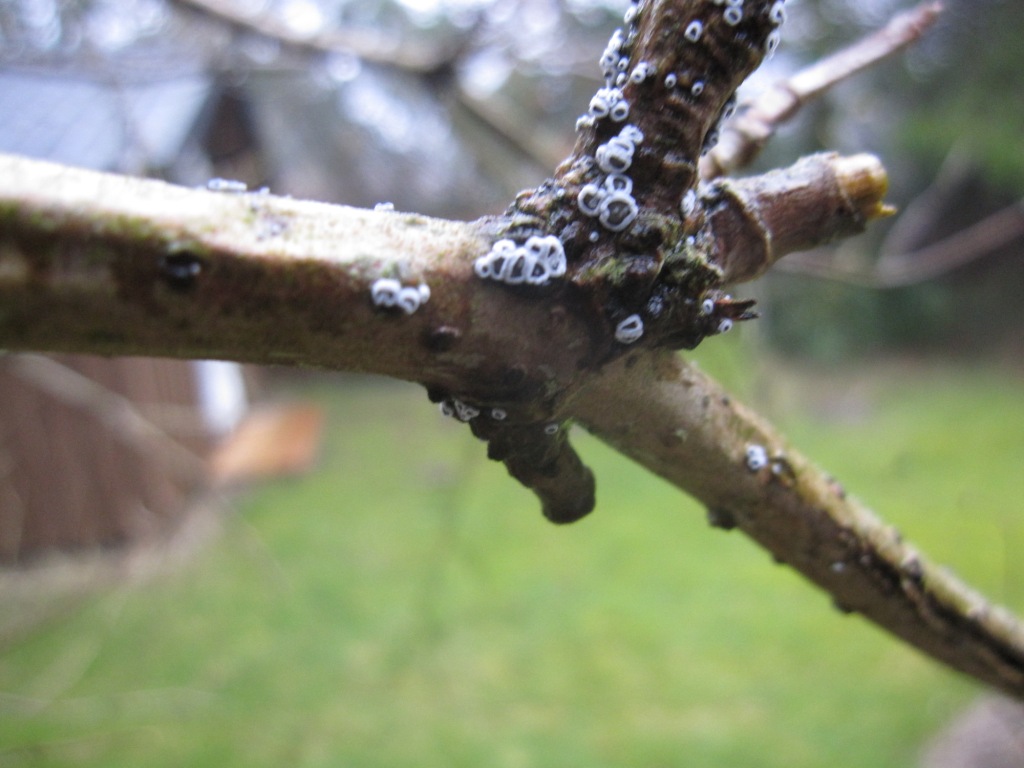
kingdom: Fungi
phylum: Basidiomycota
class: Agaricomycetes
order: Agaricales
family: Niaceae
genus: Lachnella
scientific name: Lachnella alboviolascens
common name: grå frynserede
